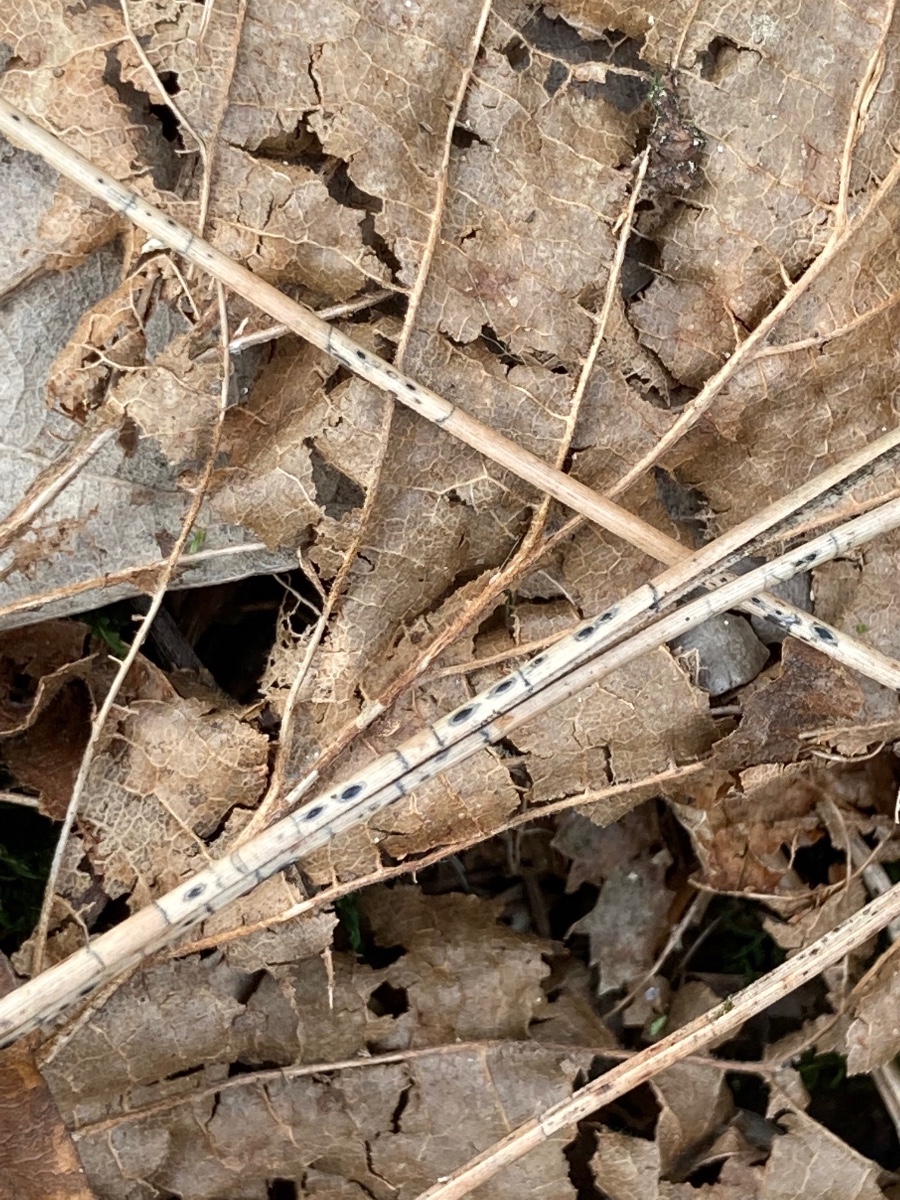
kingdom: Fungi
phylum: Ascomycota
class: Leotiomycetes
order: Rhytismatales
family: Rhytismataceae
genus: Lophodermium
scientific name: Lophodermium pinastri
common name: fyrre-fureplet
